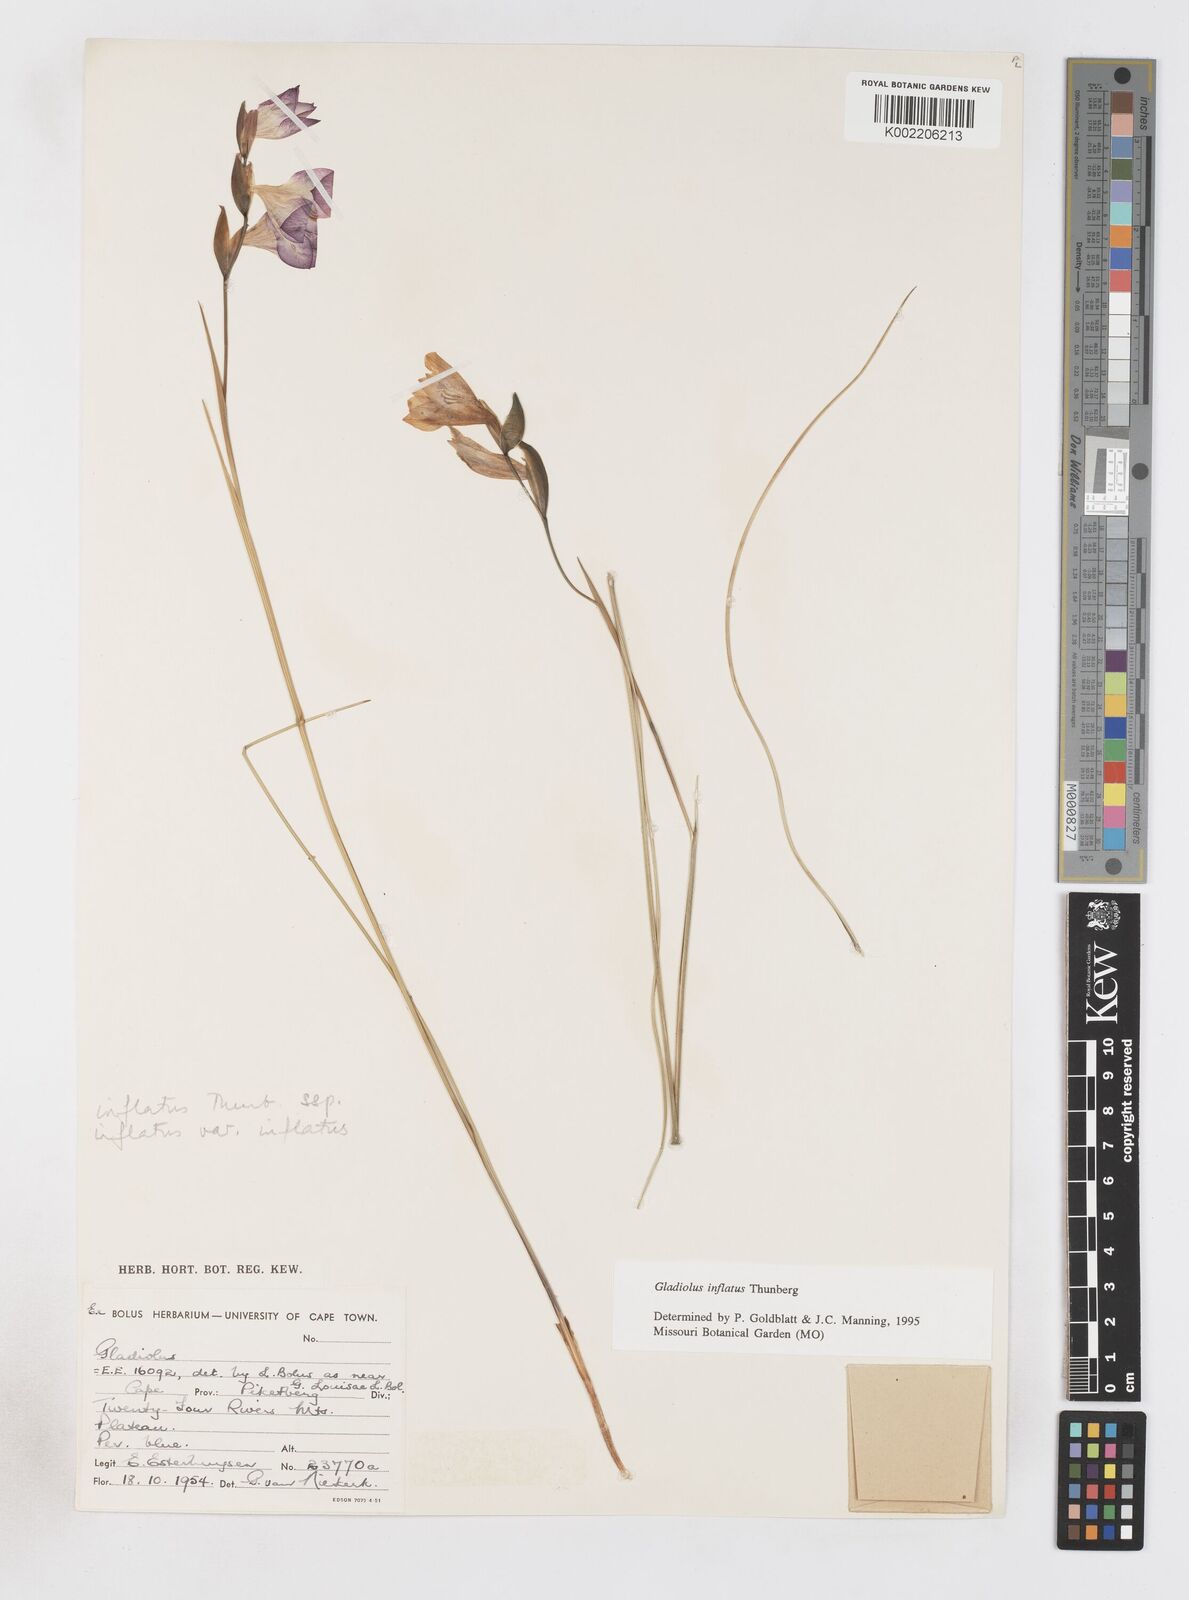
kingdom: Plantae
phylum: Tracheophyta
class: Liliopsida
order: Asparagales
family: Iridaceae
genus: Gladiolus
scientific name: Gladiolus inflatus
